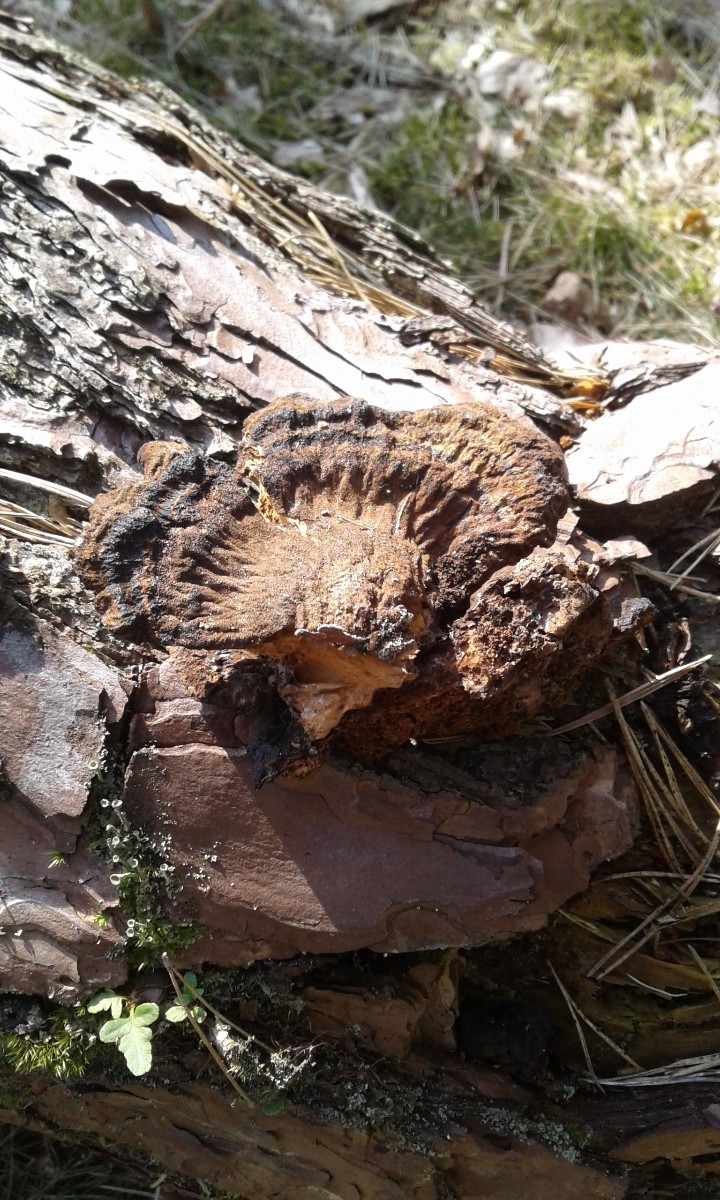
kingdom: Fungi
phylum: Basidiomycota
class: Agaricomycetes
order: Polyporales
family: Ischnodermataceae
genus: Ischnoderma
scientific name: Ischnoderma benzoinum
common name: gran-tjæreporesvamp
